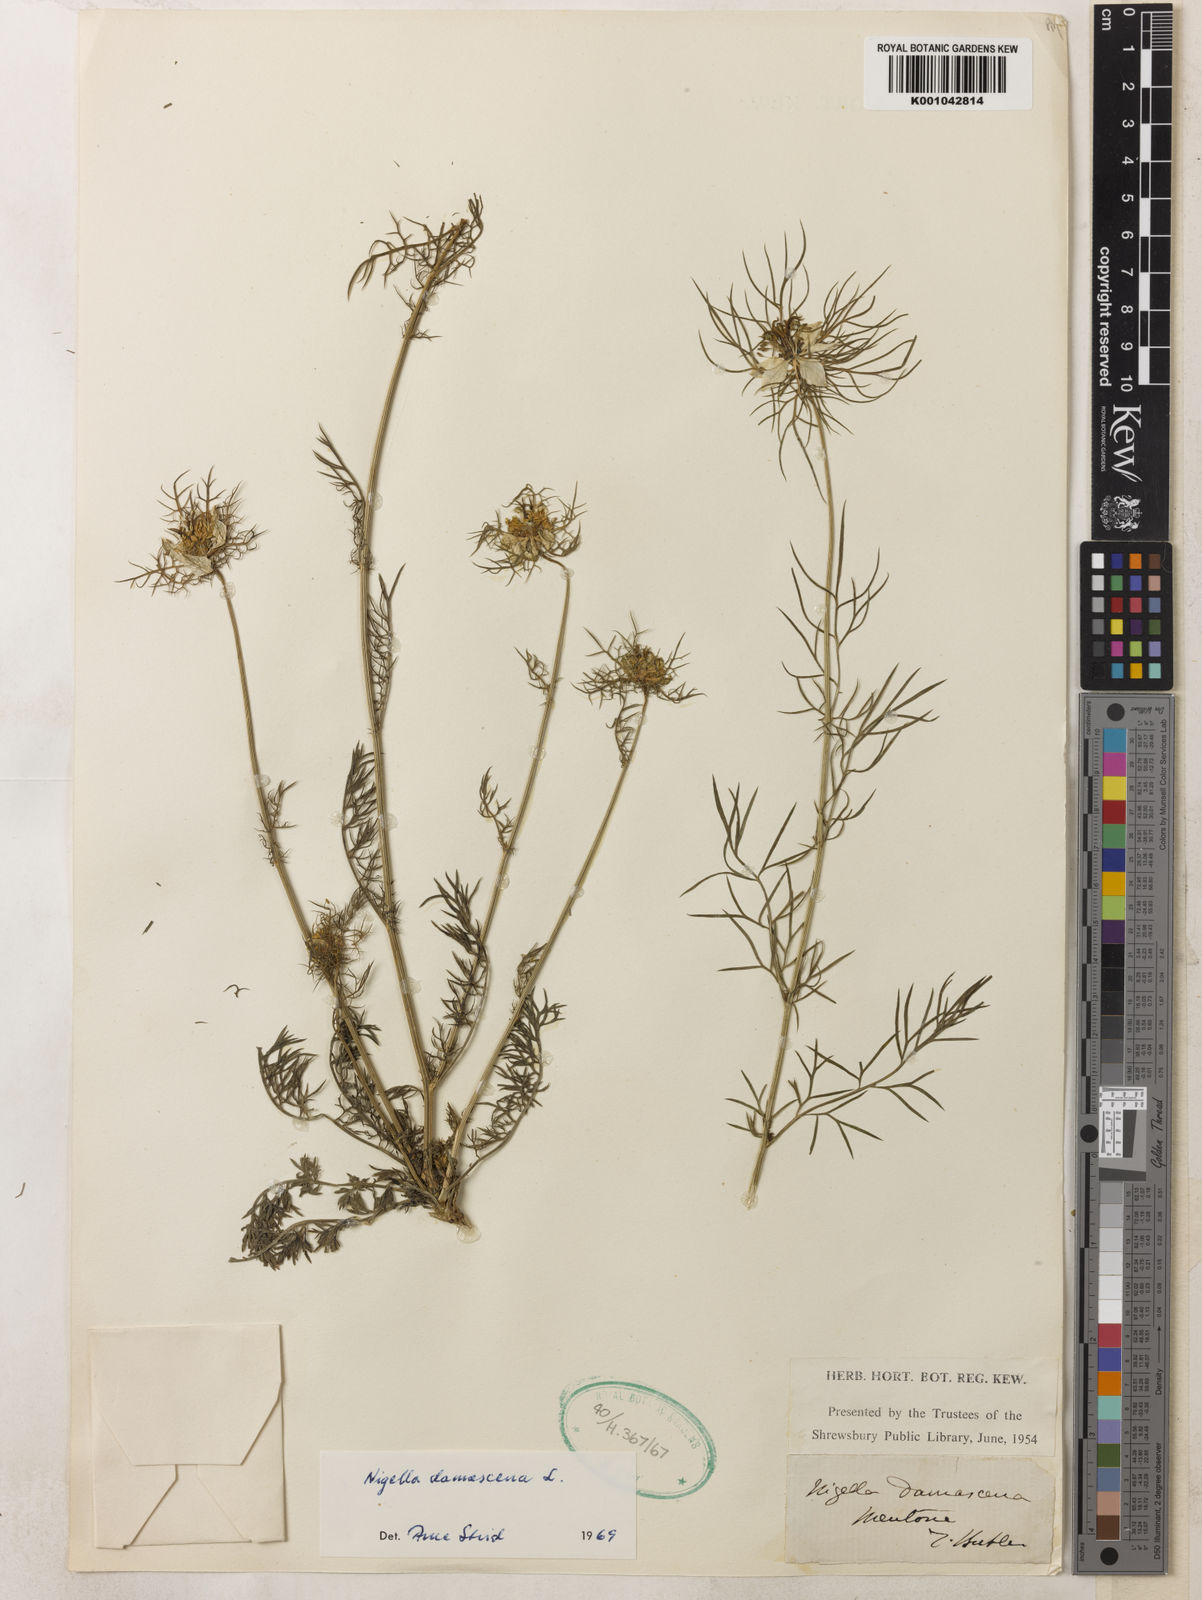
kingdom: Plantae
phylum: Tracheophyta
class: Magnoliopsida
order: Ranunculales
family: Ranunculaceae
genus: Nigella
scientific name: Nigella damascena
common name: Love-in-a-mist
